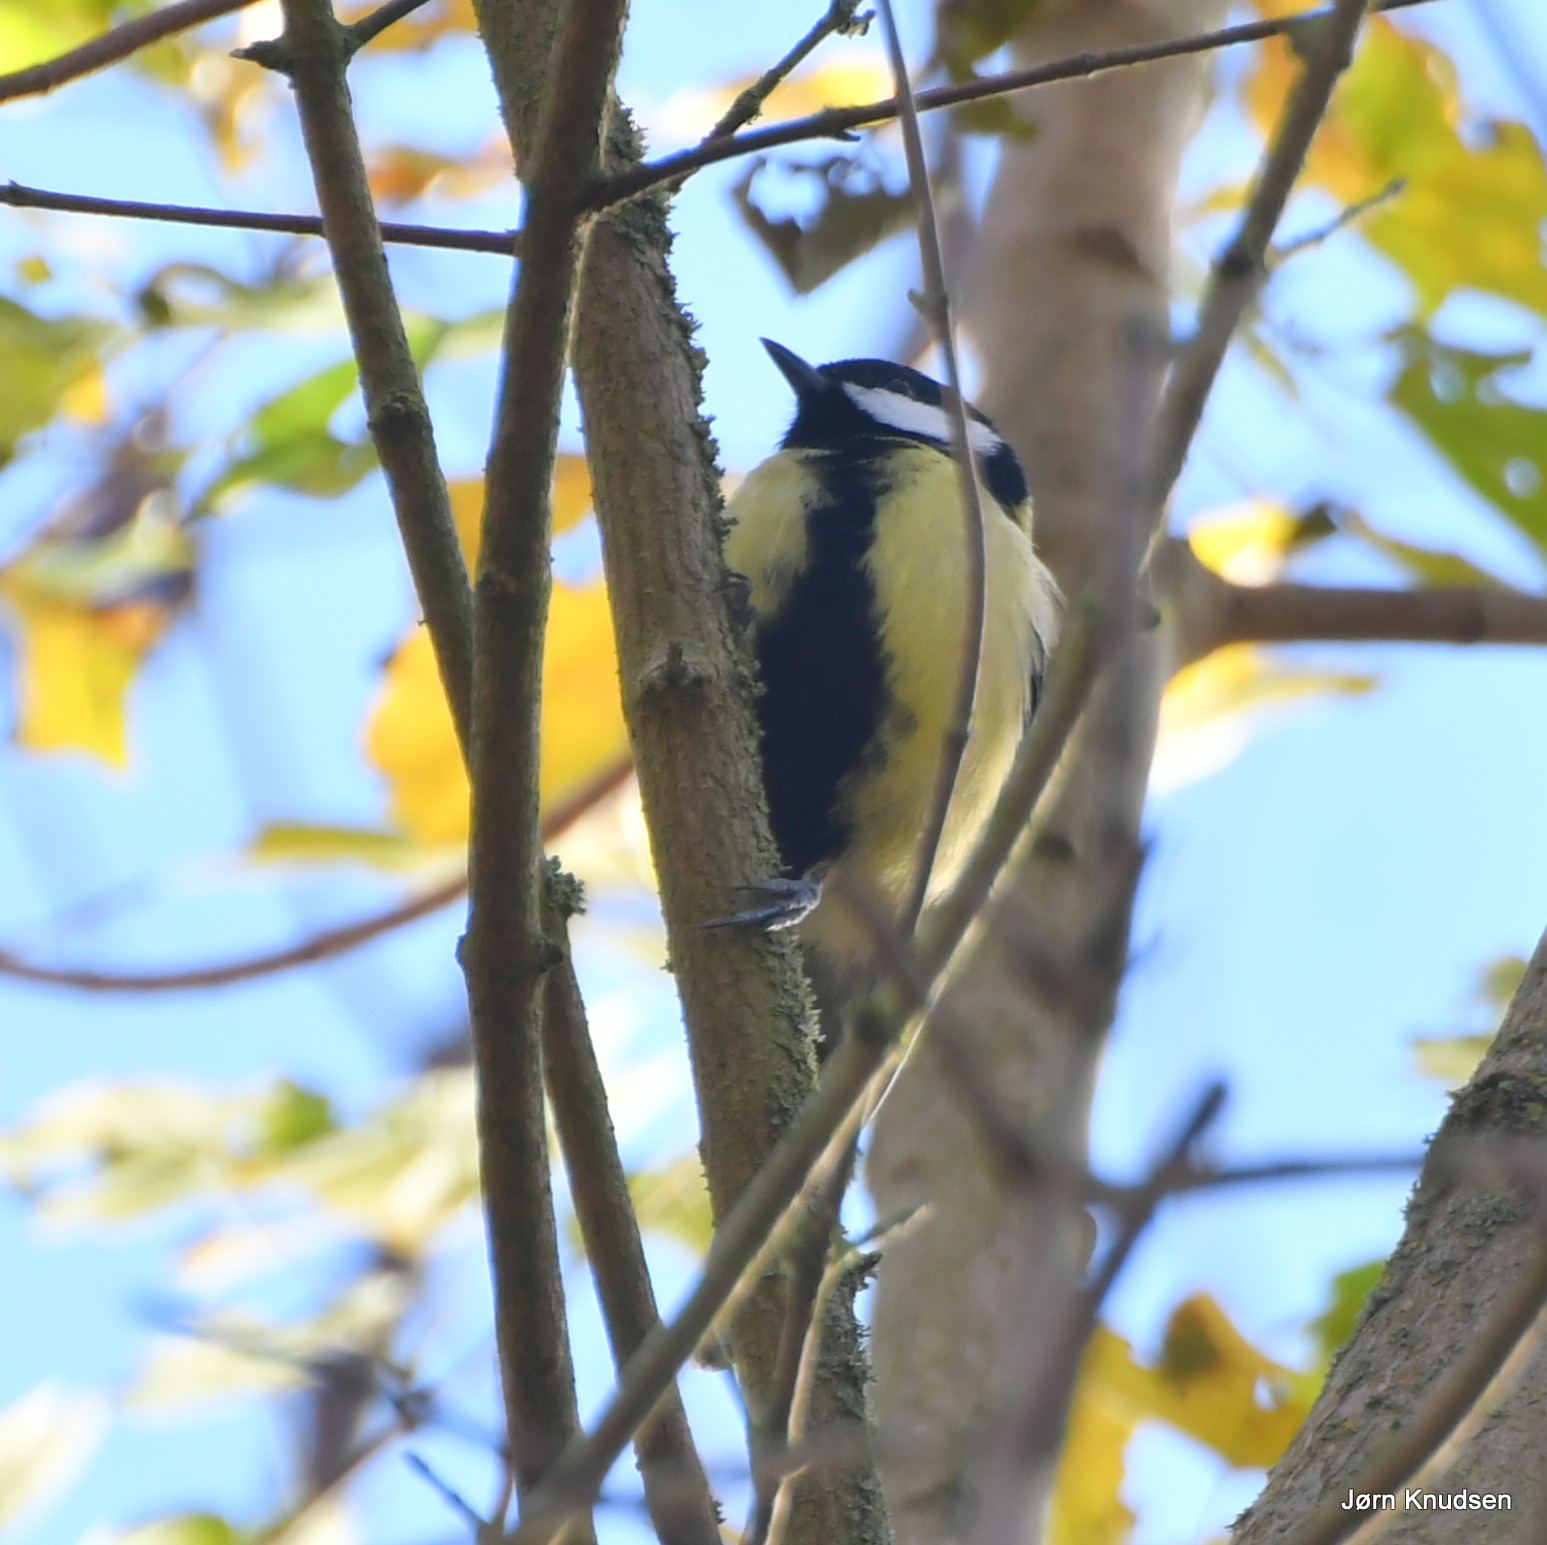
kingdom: Animalia
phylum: Chordata
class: Aves
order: Passeriformes
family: Paridae
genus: Parus
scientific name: Parus major
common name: Musvit
